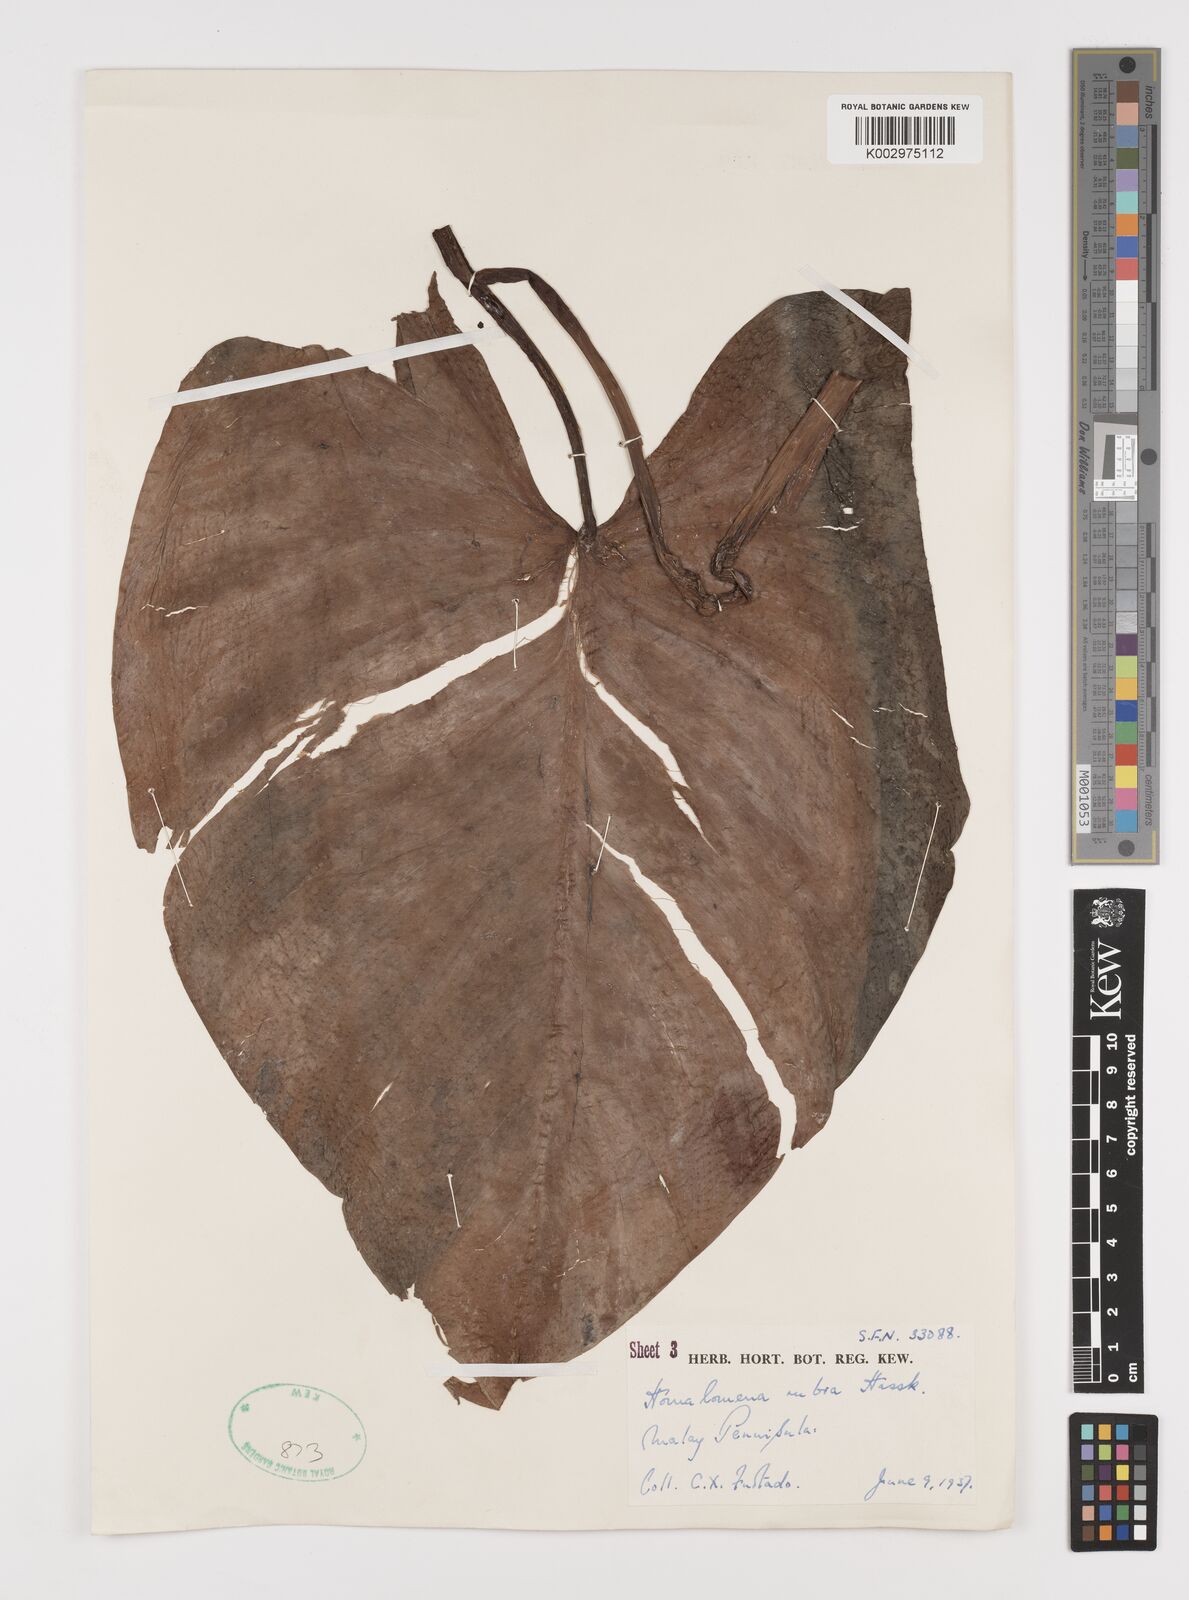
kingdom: Plantae
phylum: Tracheophyta
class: Liliopsida
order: Alismatales
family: Araceae
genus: Homalomena
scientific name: Homalomena pendula
